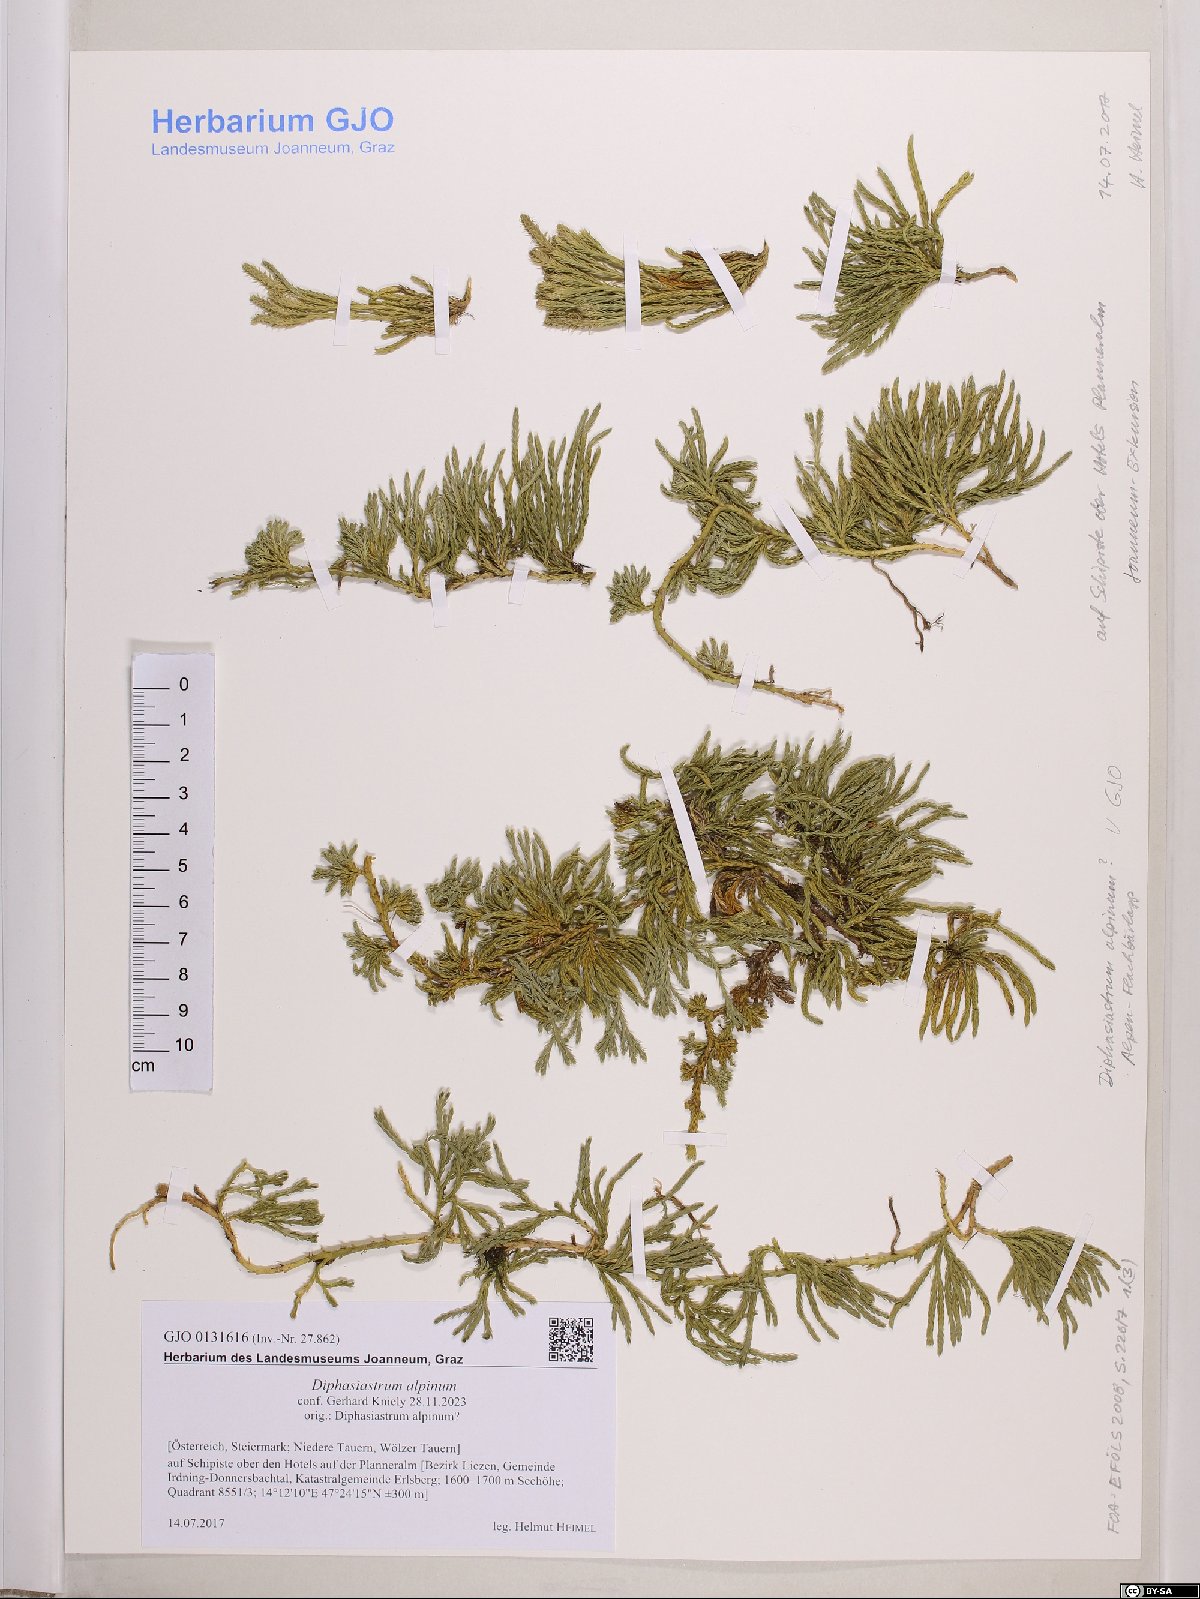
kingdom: Plantae
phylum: Tracheophyta
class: Lycopodiopsida
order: Lycopodiales
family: Lycopodiaceae
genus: Diphasiastrum
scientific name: Diphasiastrum alpinum
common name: Alpine clubmoss
